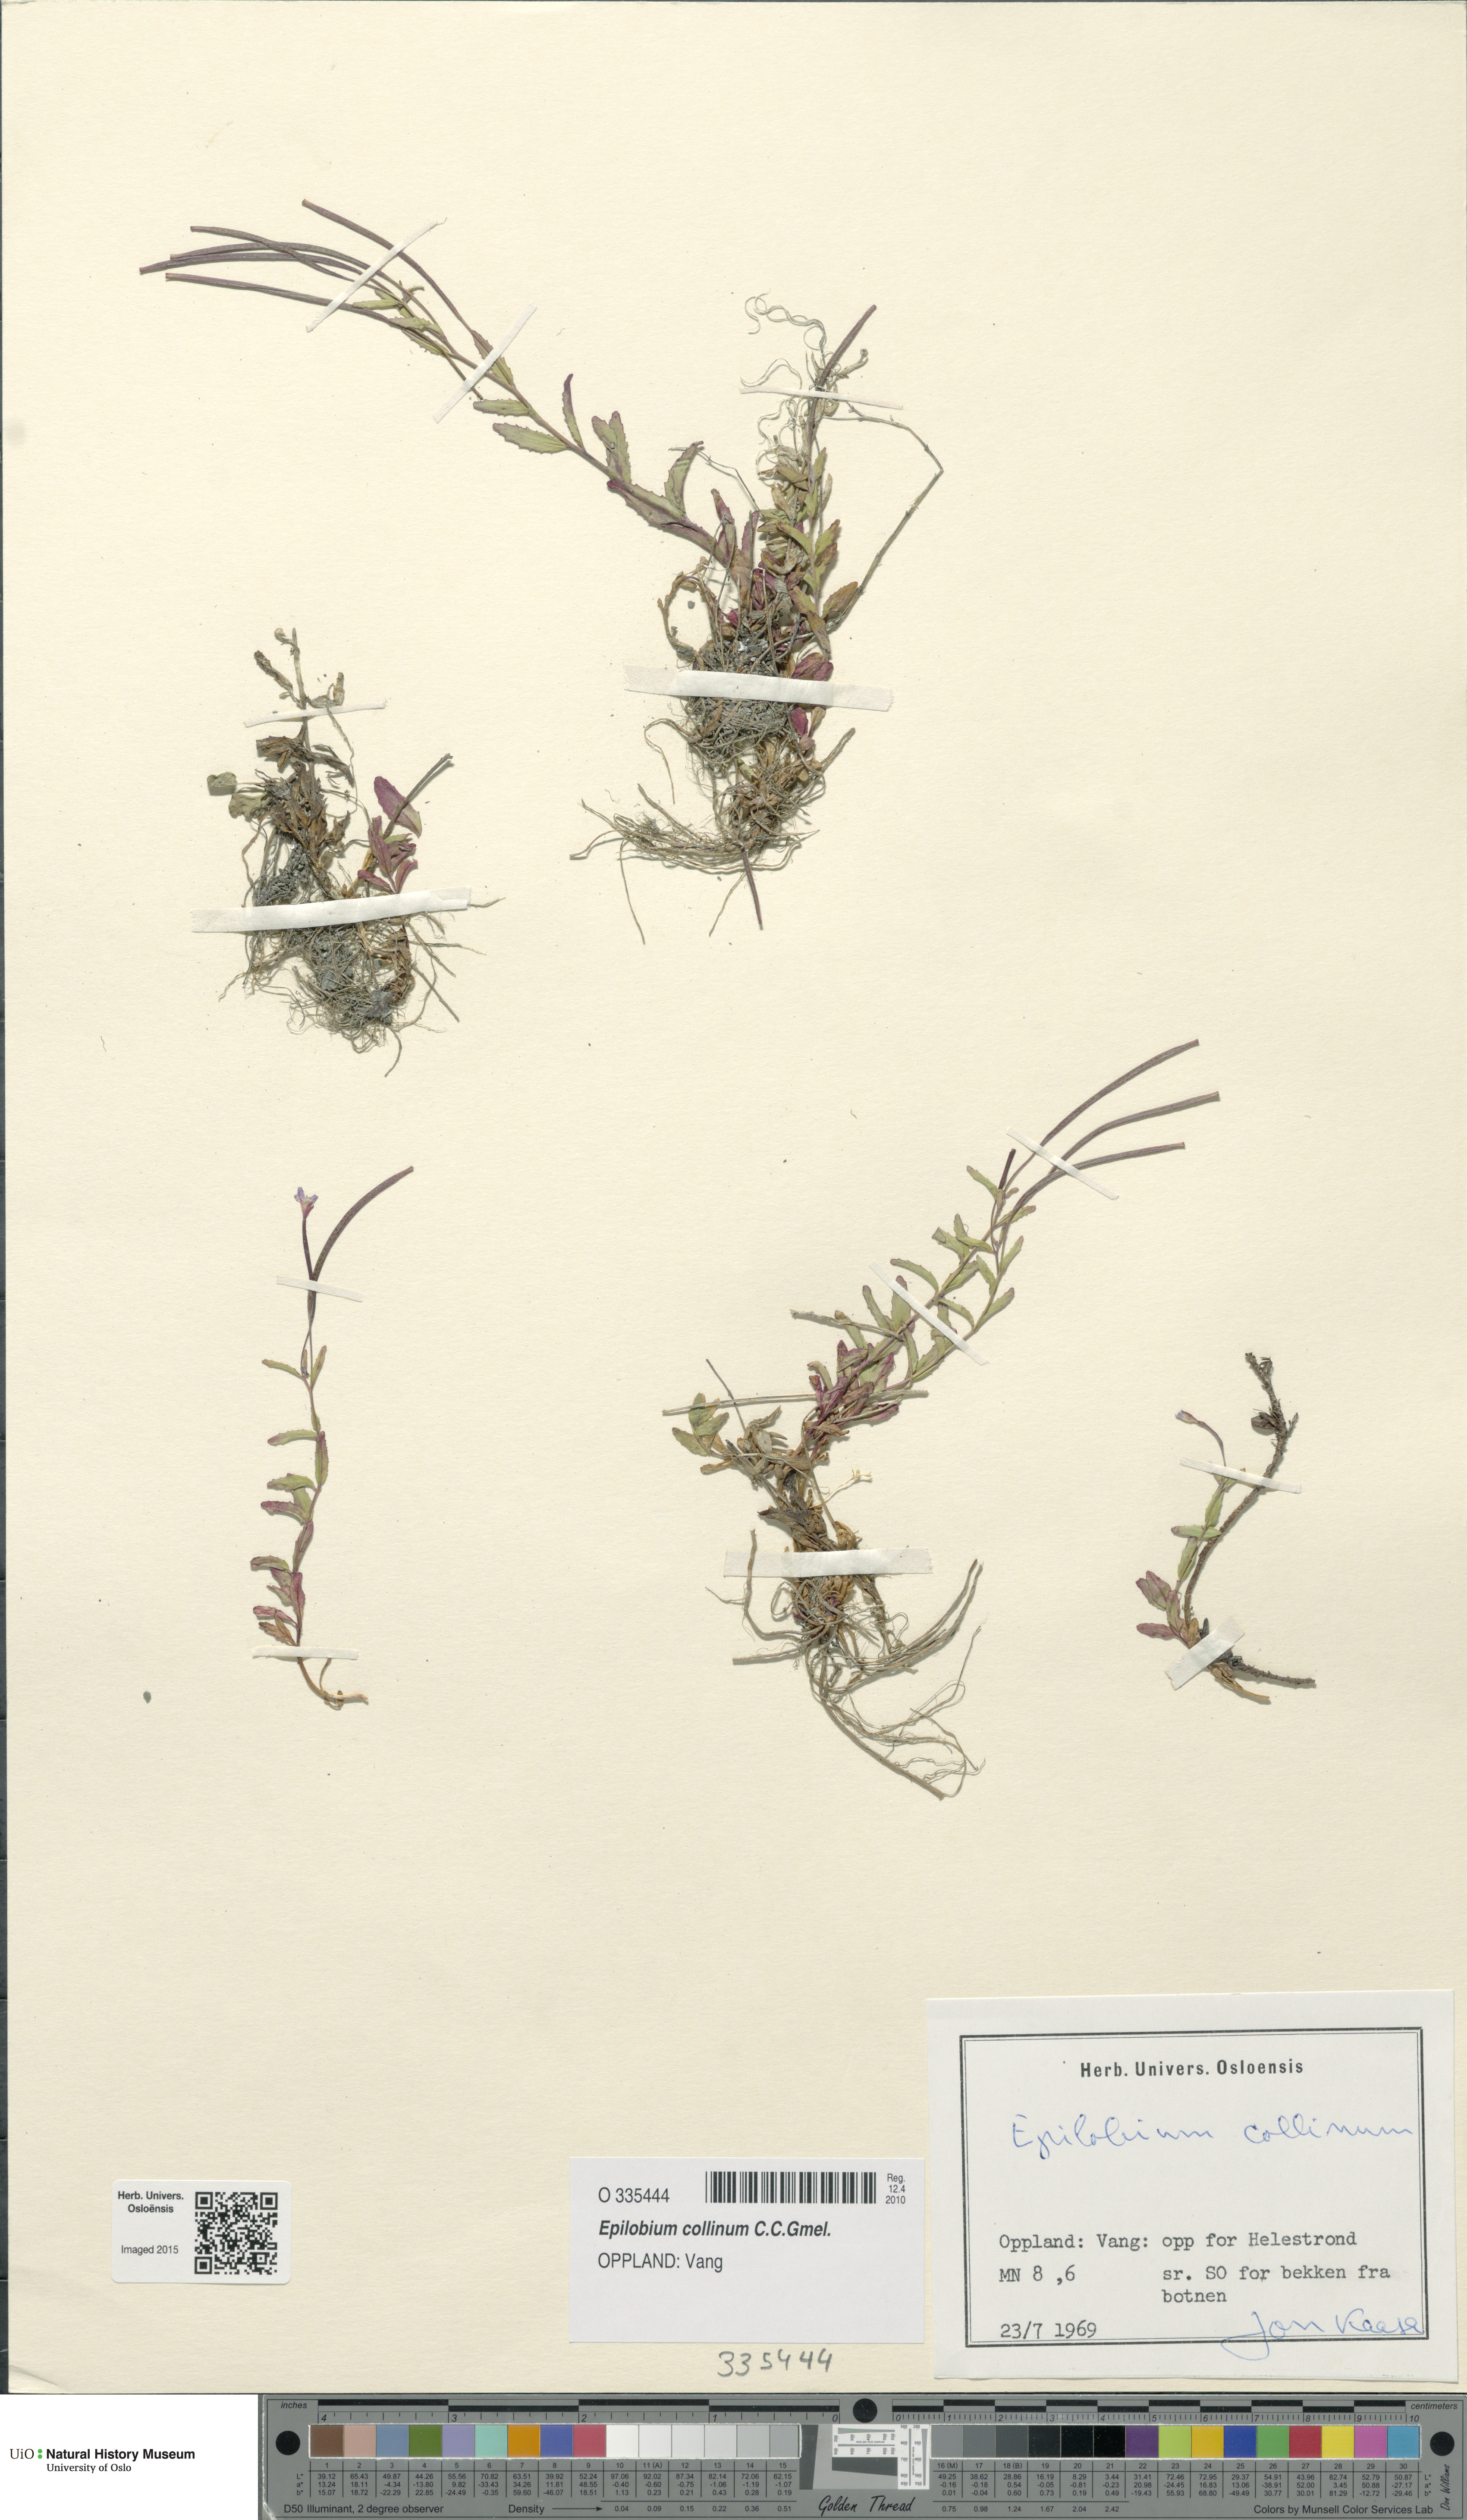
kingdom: Plantae
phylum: Tracheophyta
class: Magnoliopsida
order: Myrtales
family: Onagraceae
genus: Epilobium
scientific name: Epilobium collinum
